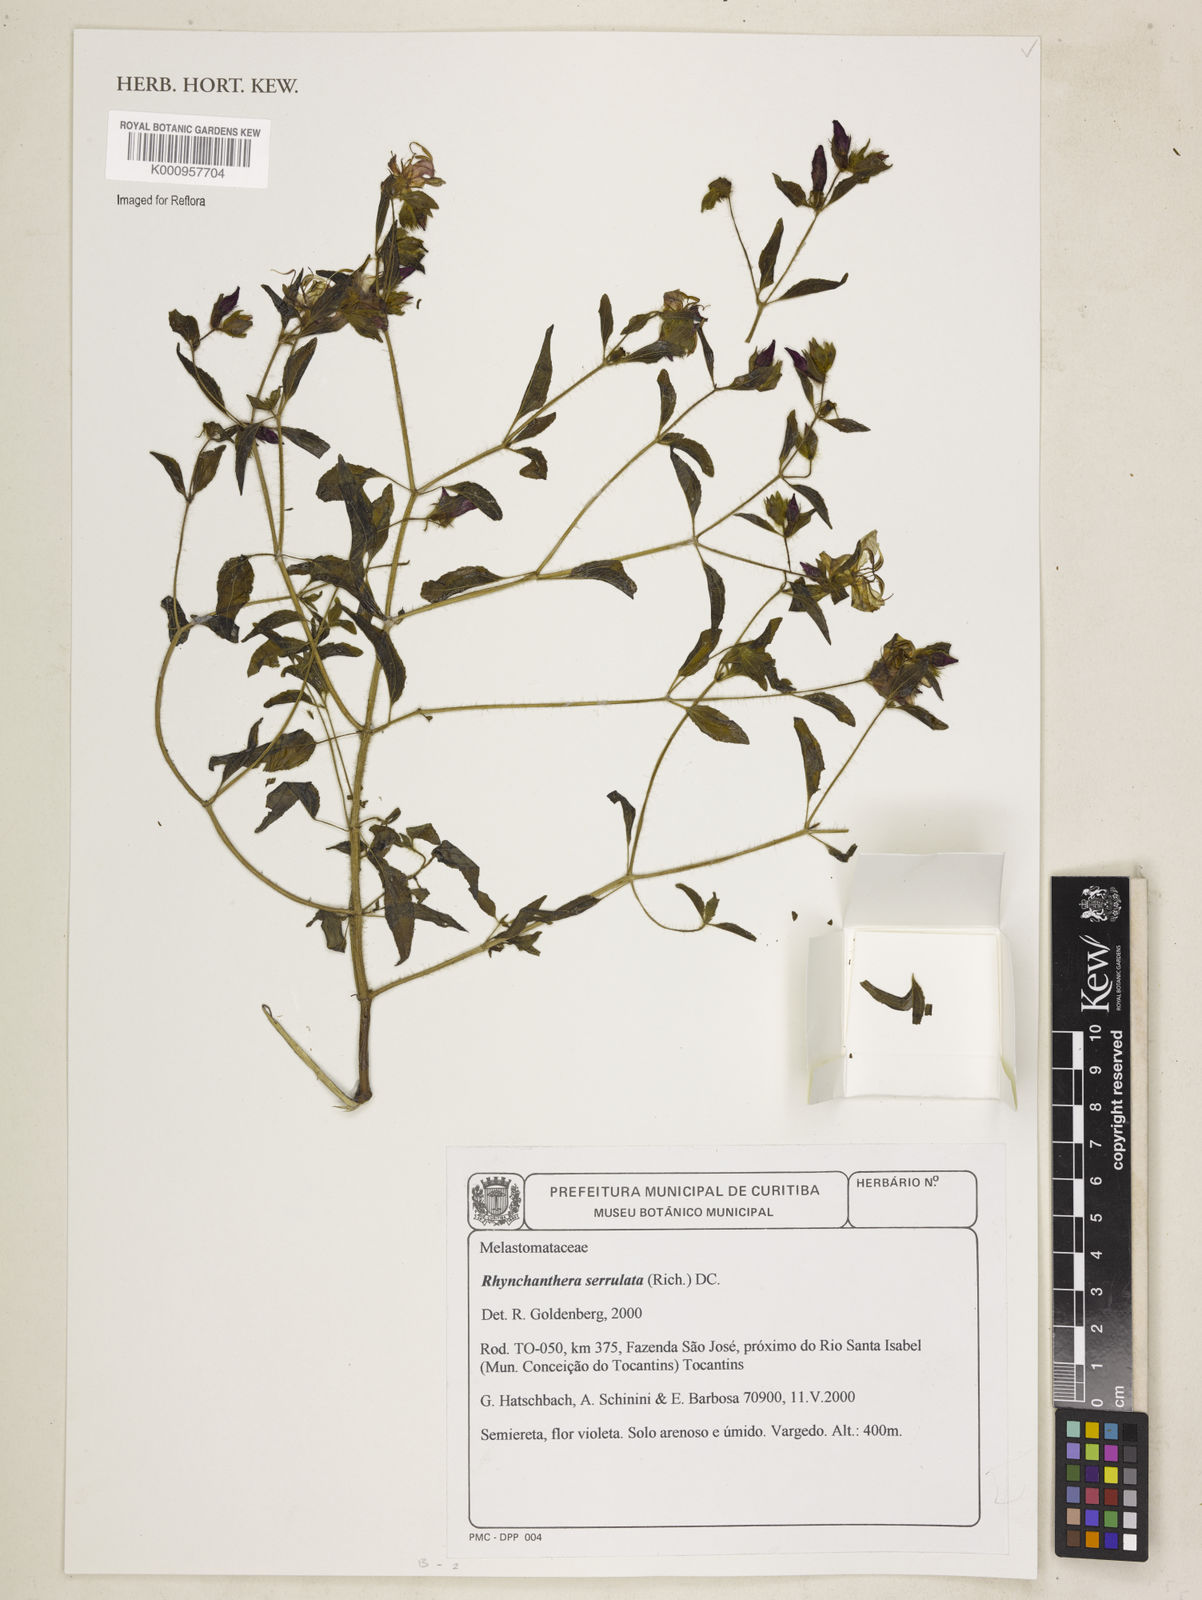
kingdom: Plantae
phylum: Tracheophyta
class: Magnoliopsida
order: Myrtales
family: Melastomataceae
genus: Rhynchanthera
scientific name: Rhynchanthera serrulata
